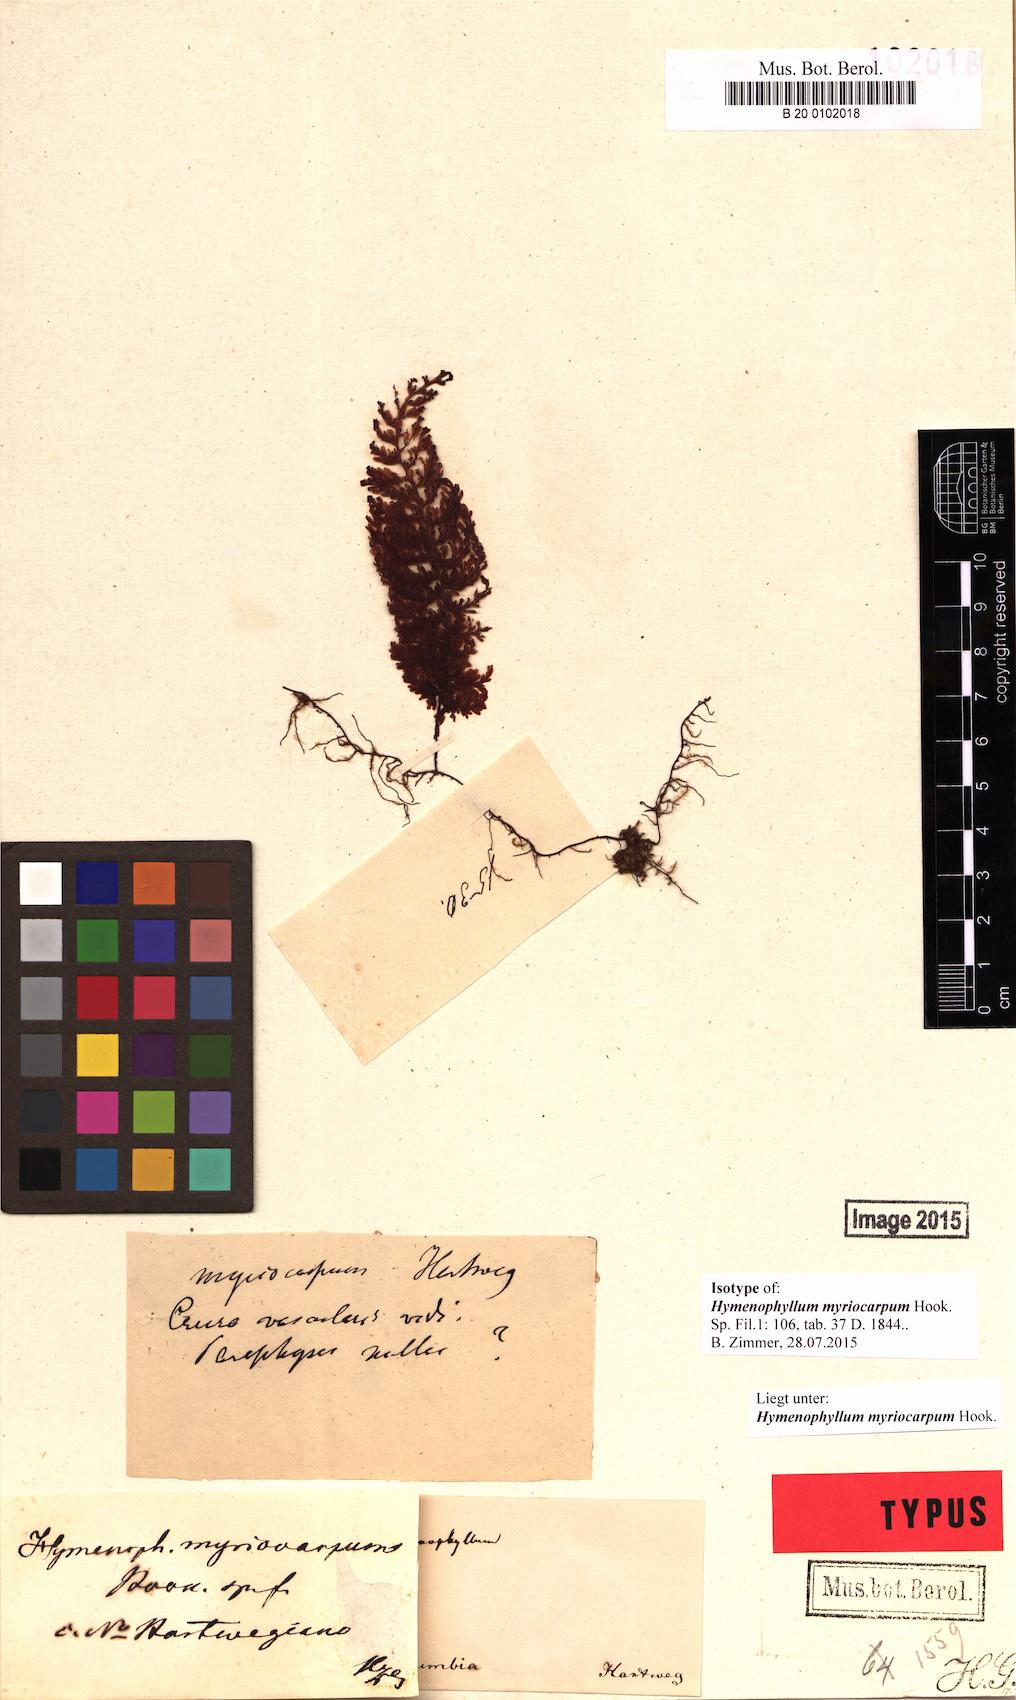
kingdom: Plantae
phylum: Tracheophyta
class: Polypodiopsida
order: Hymenophyllales
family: Hymenophyllaceae
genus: Hymenophyllum
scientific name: Hymenophyllum myriocarpum
